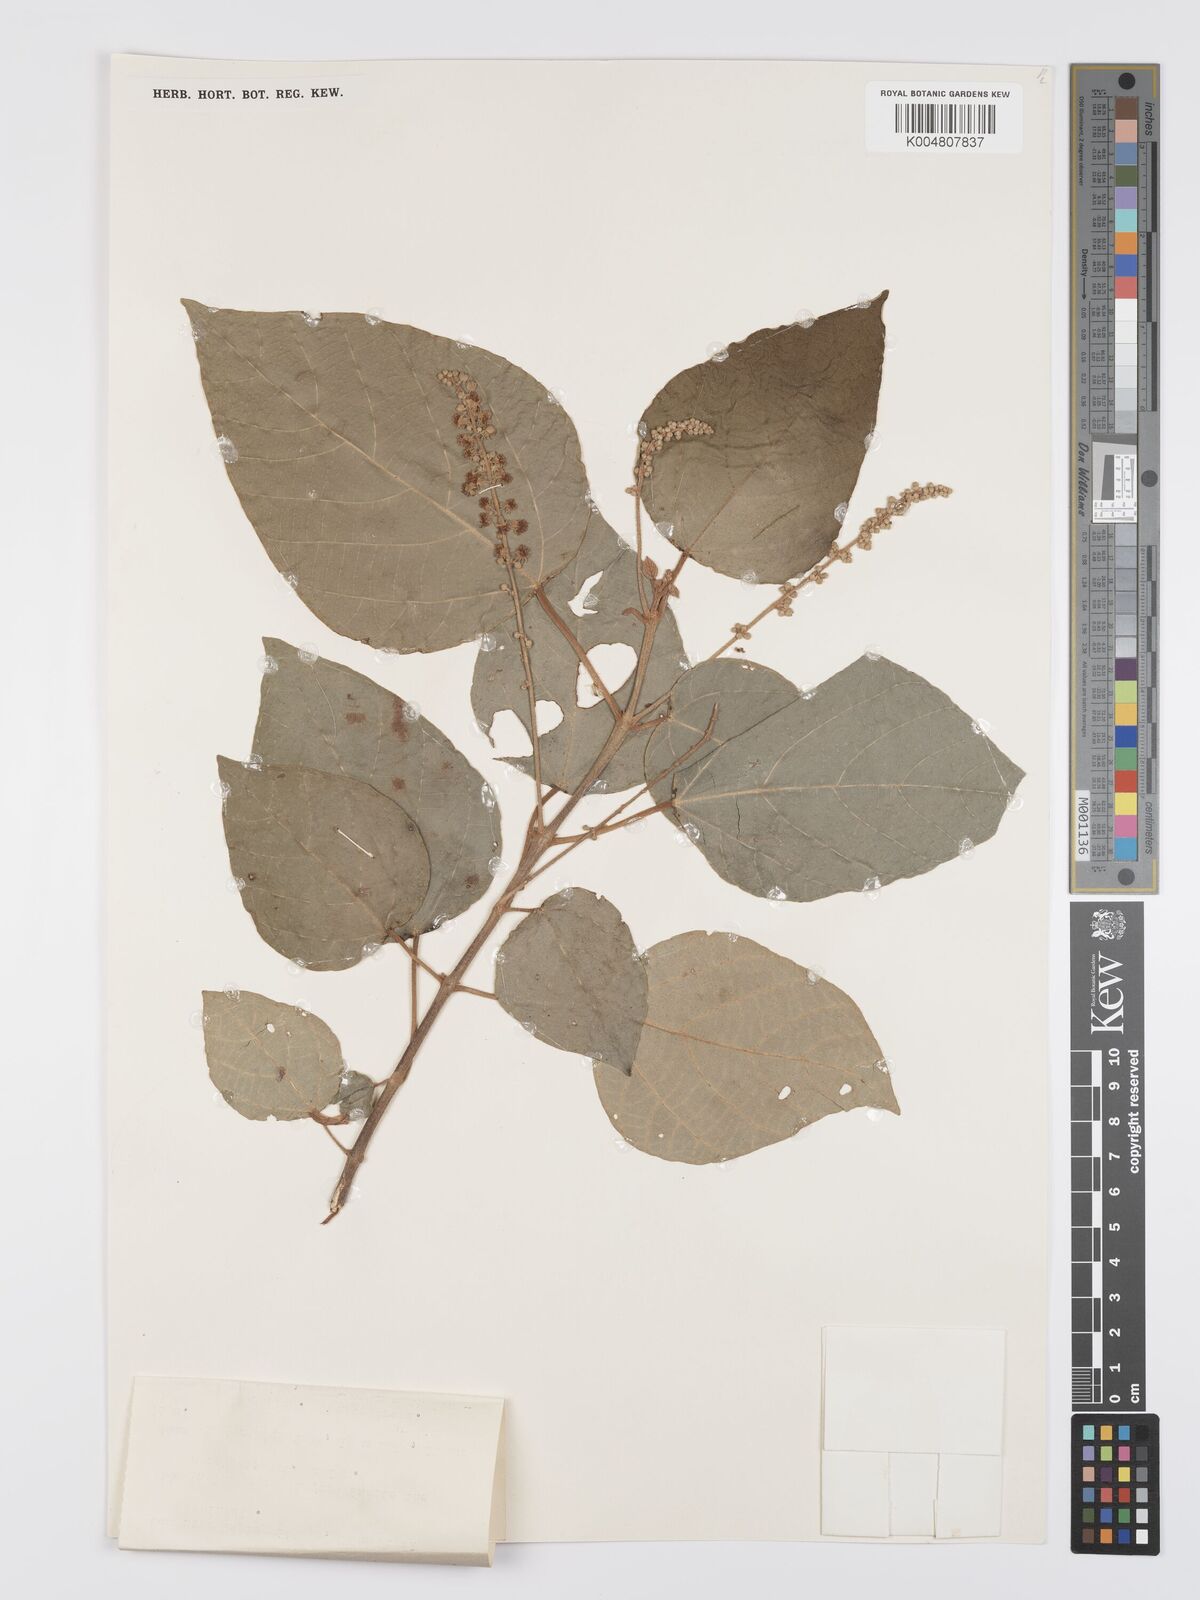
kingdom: Plantae
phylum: Tracheophyta
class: Magnoliopsida
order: Malpighiales
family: Euphorbiaceae
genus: Mallotus
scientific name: Mallotus tiliifolius
